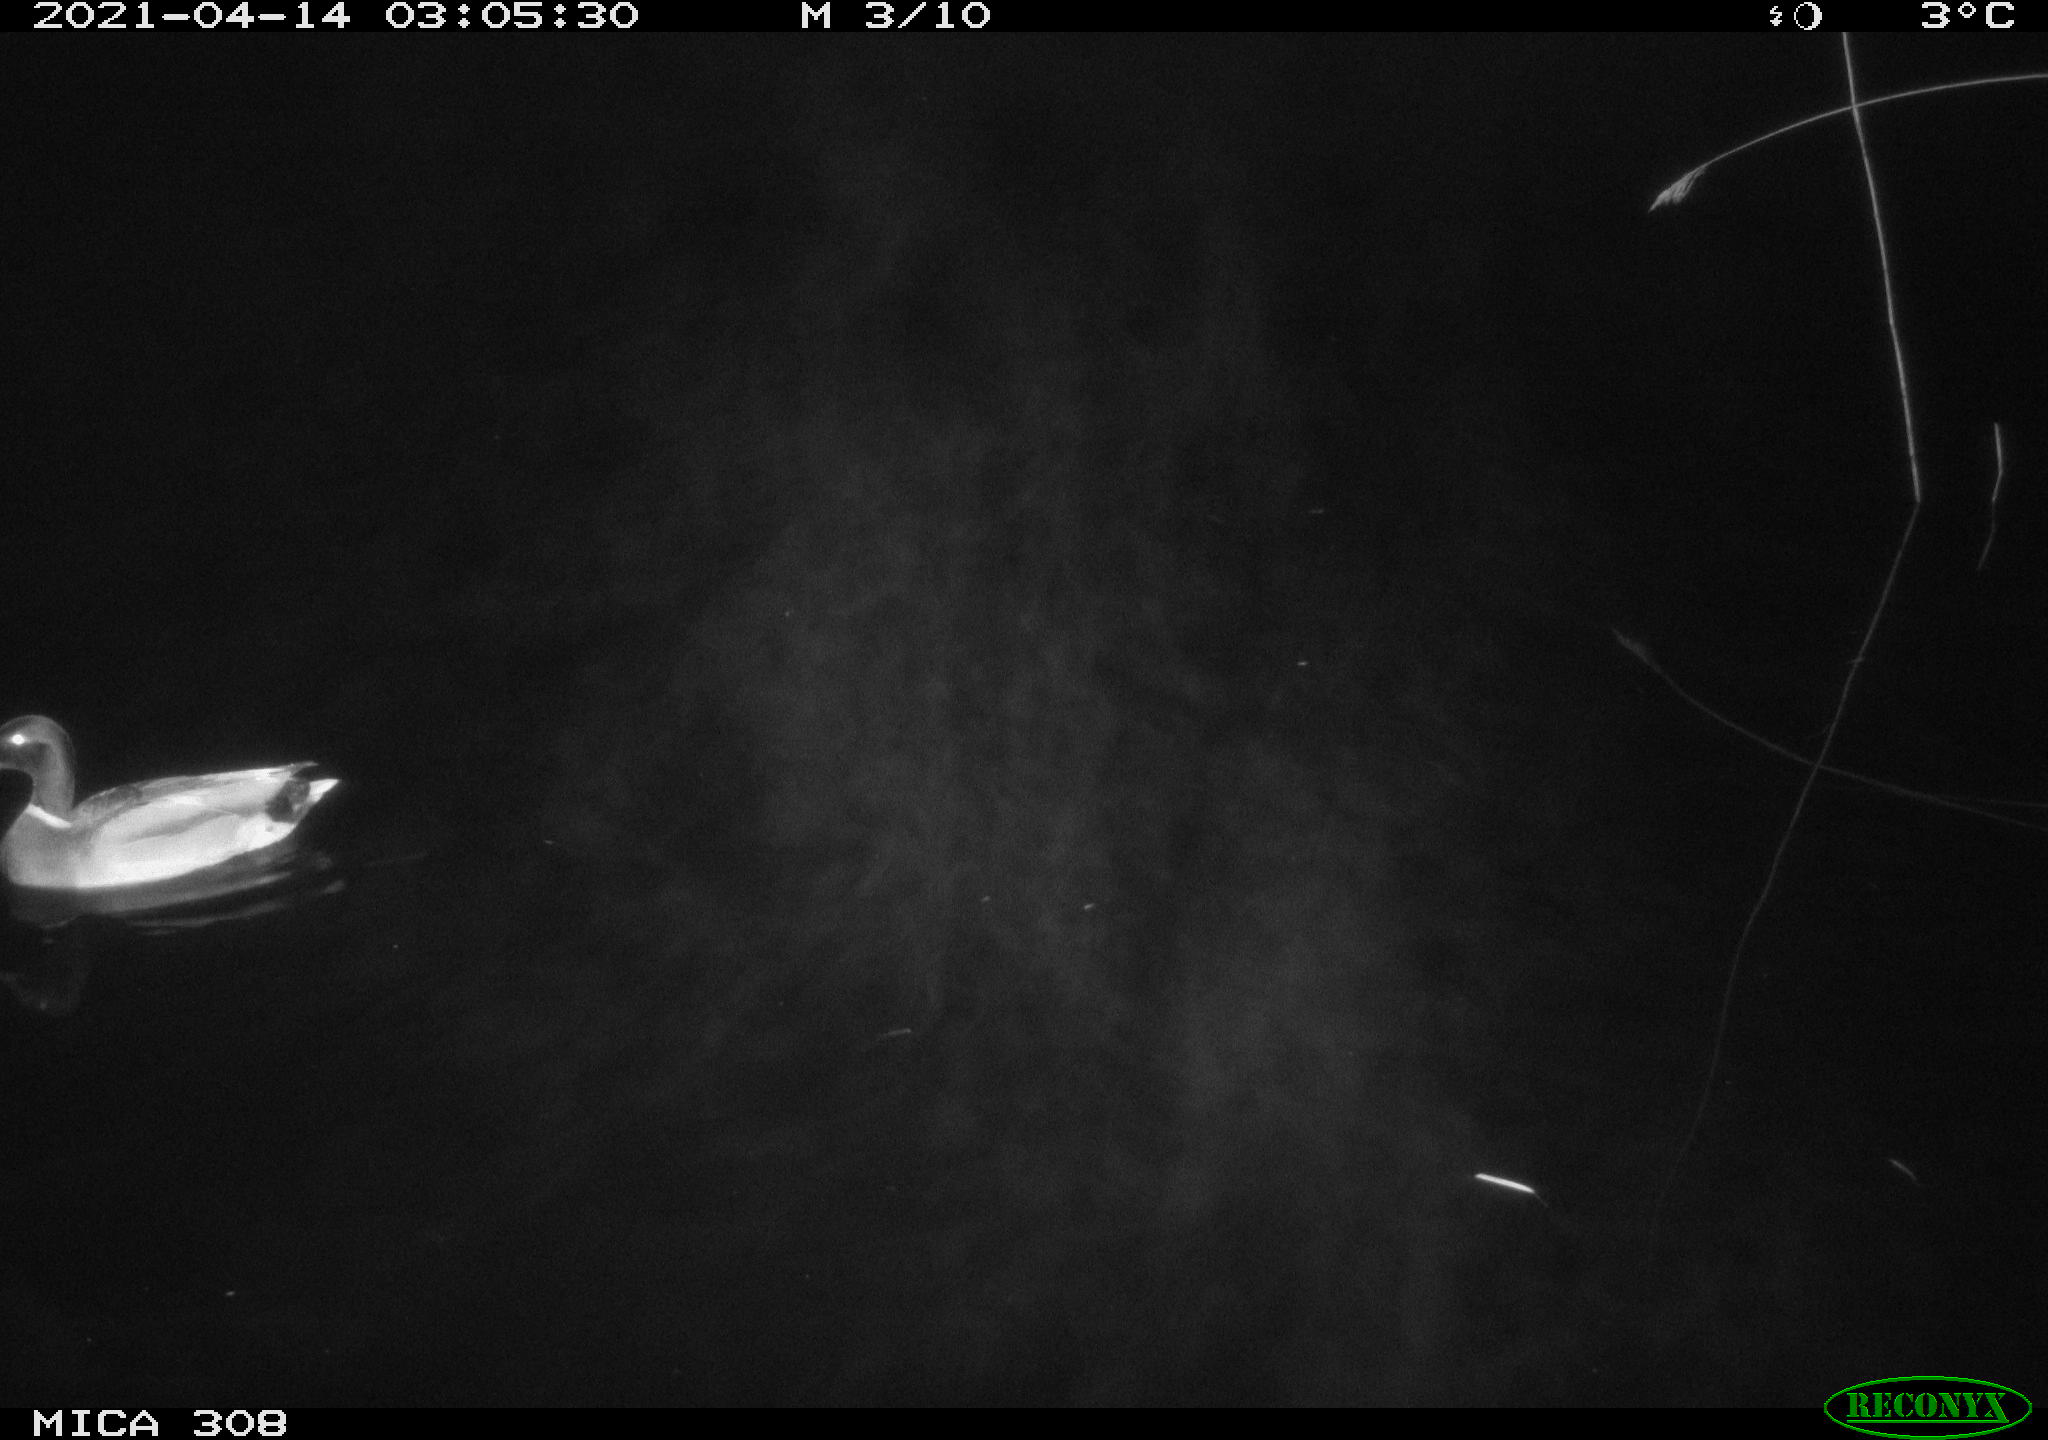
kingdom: Animalia
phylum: Chordata
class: Aves
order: Anseriformes
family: Anatidae
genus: Anas
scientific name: Anas platyrhynchos
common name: Mallard
